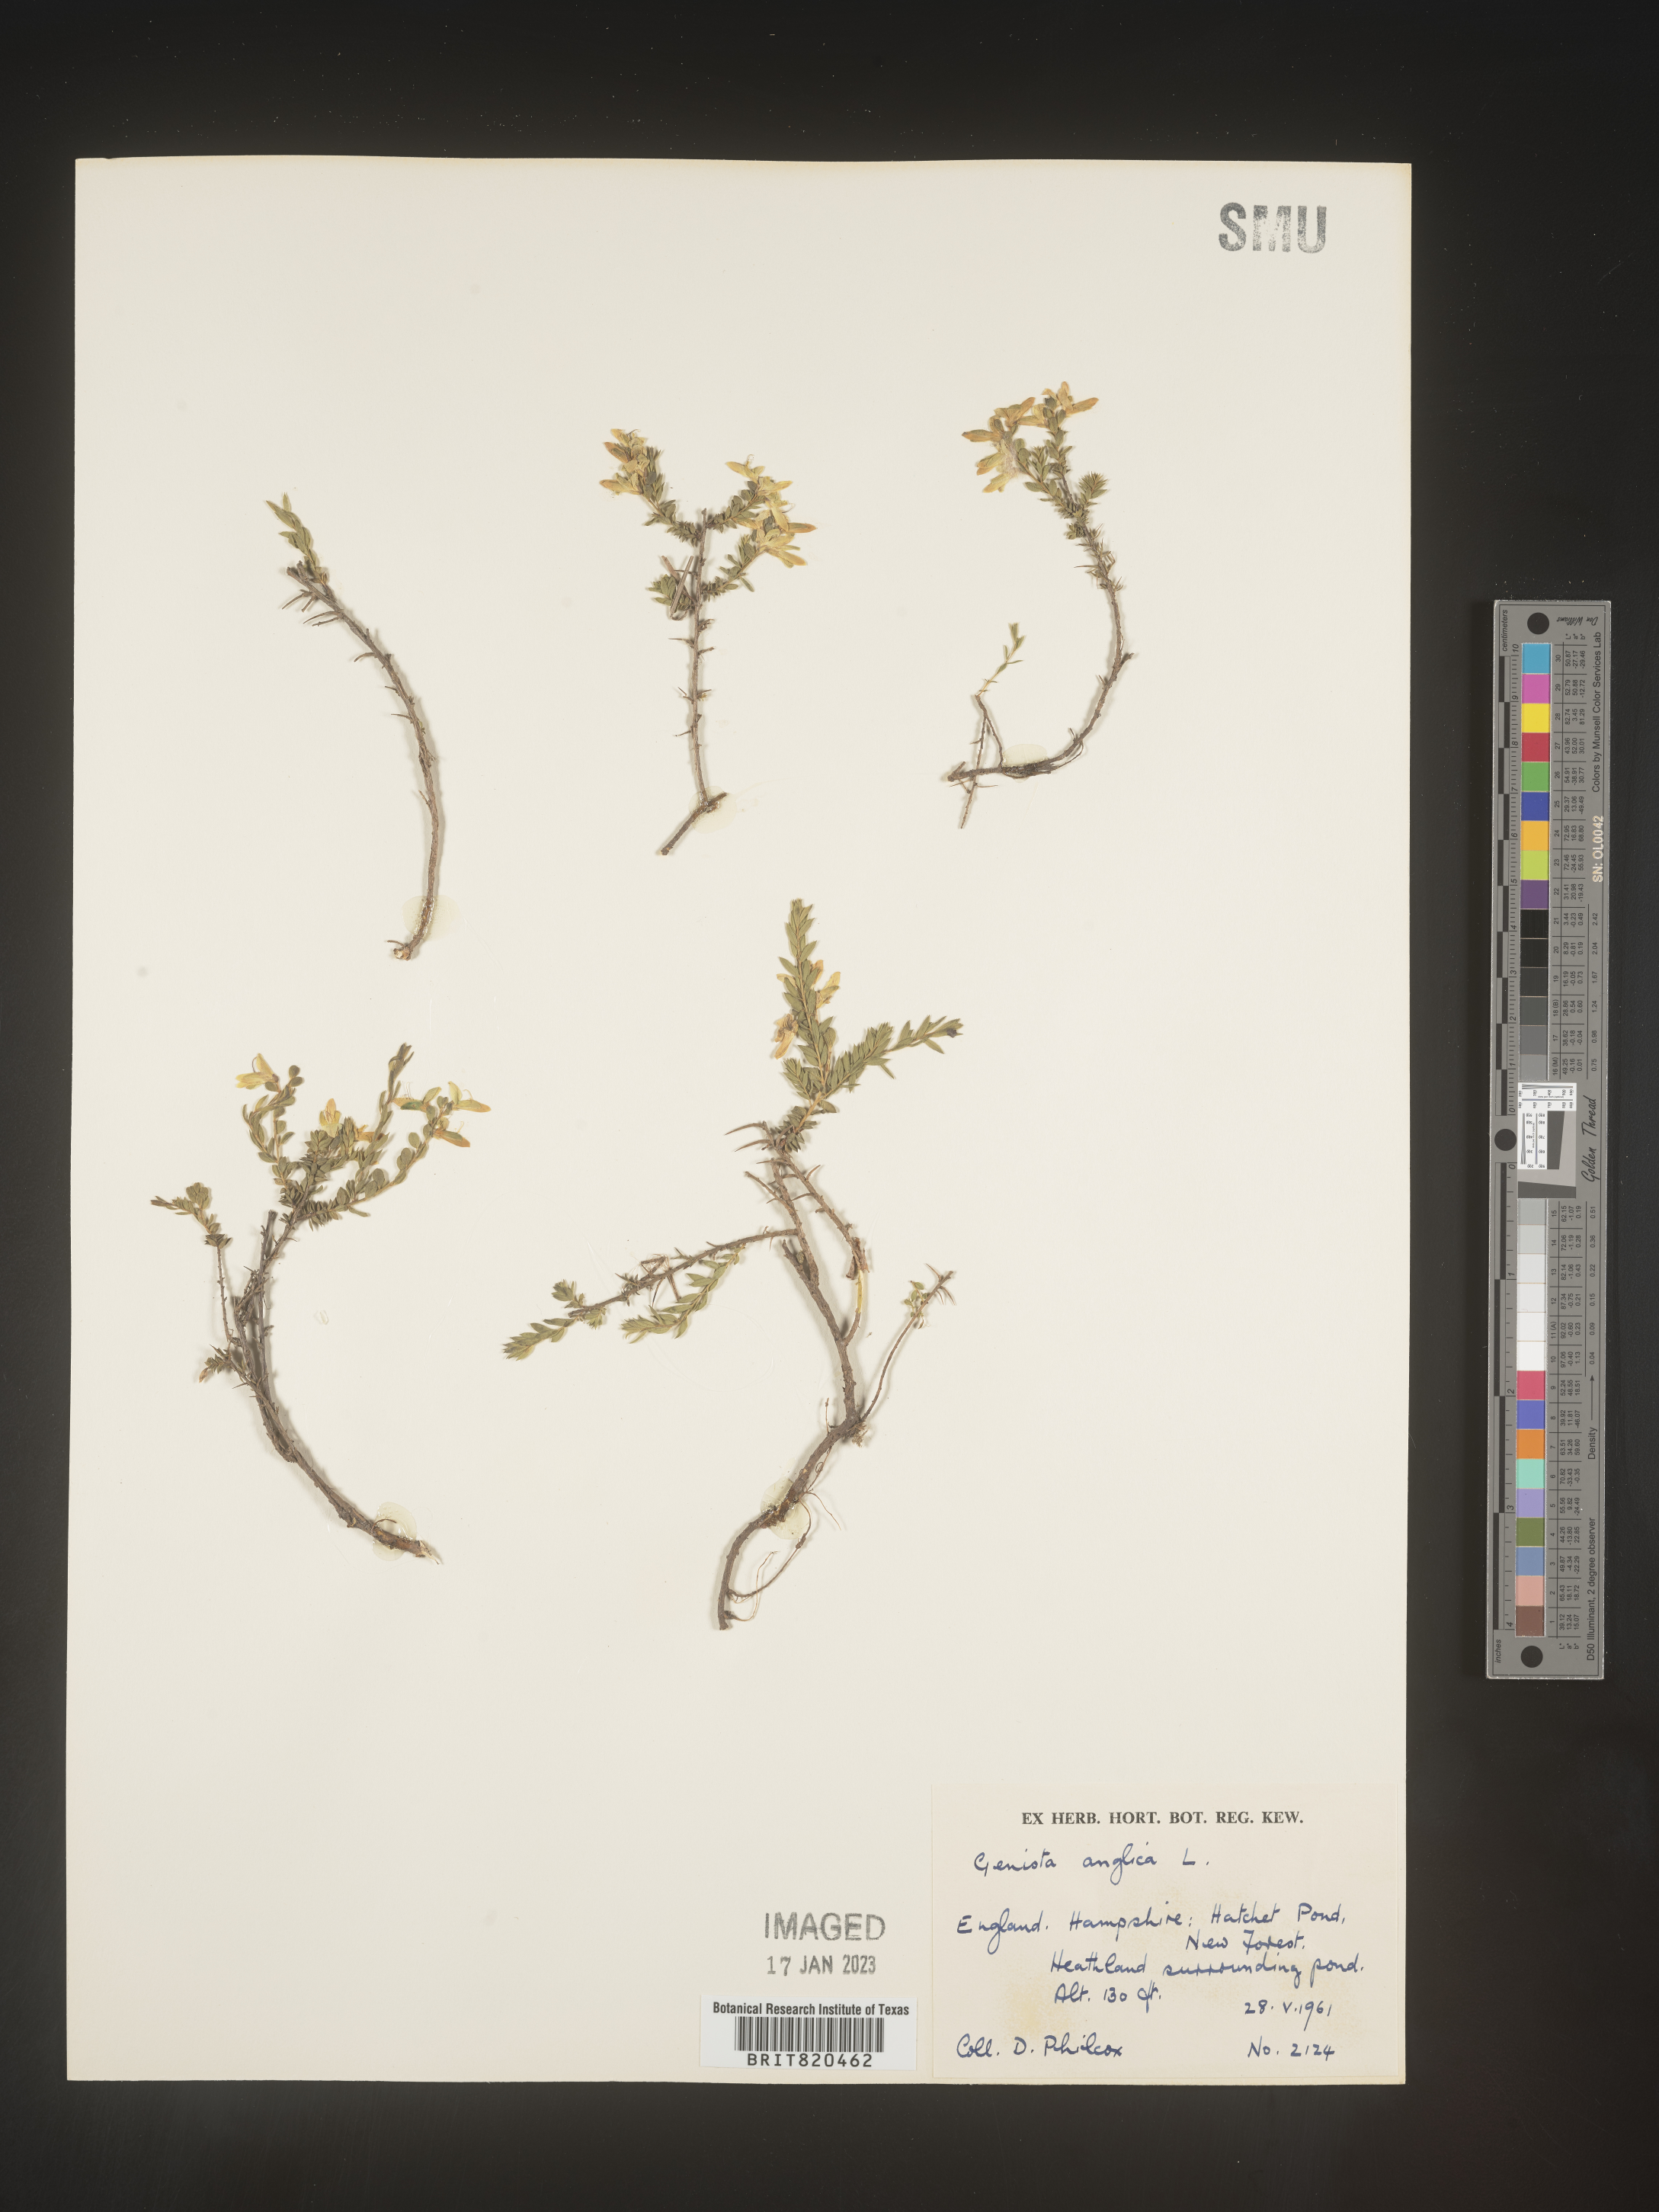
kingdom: Plantae
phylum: Tracheophyta
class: Magnoliopsida
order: Fabales
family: Fabaceae
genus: Genista
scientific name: Genista
